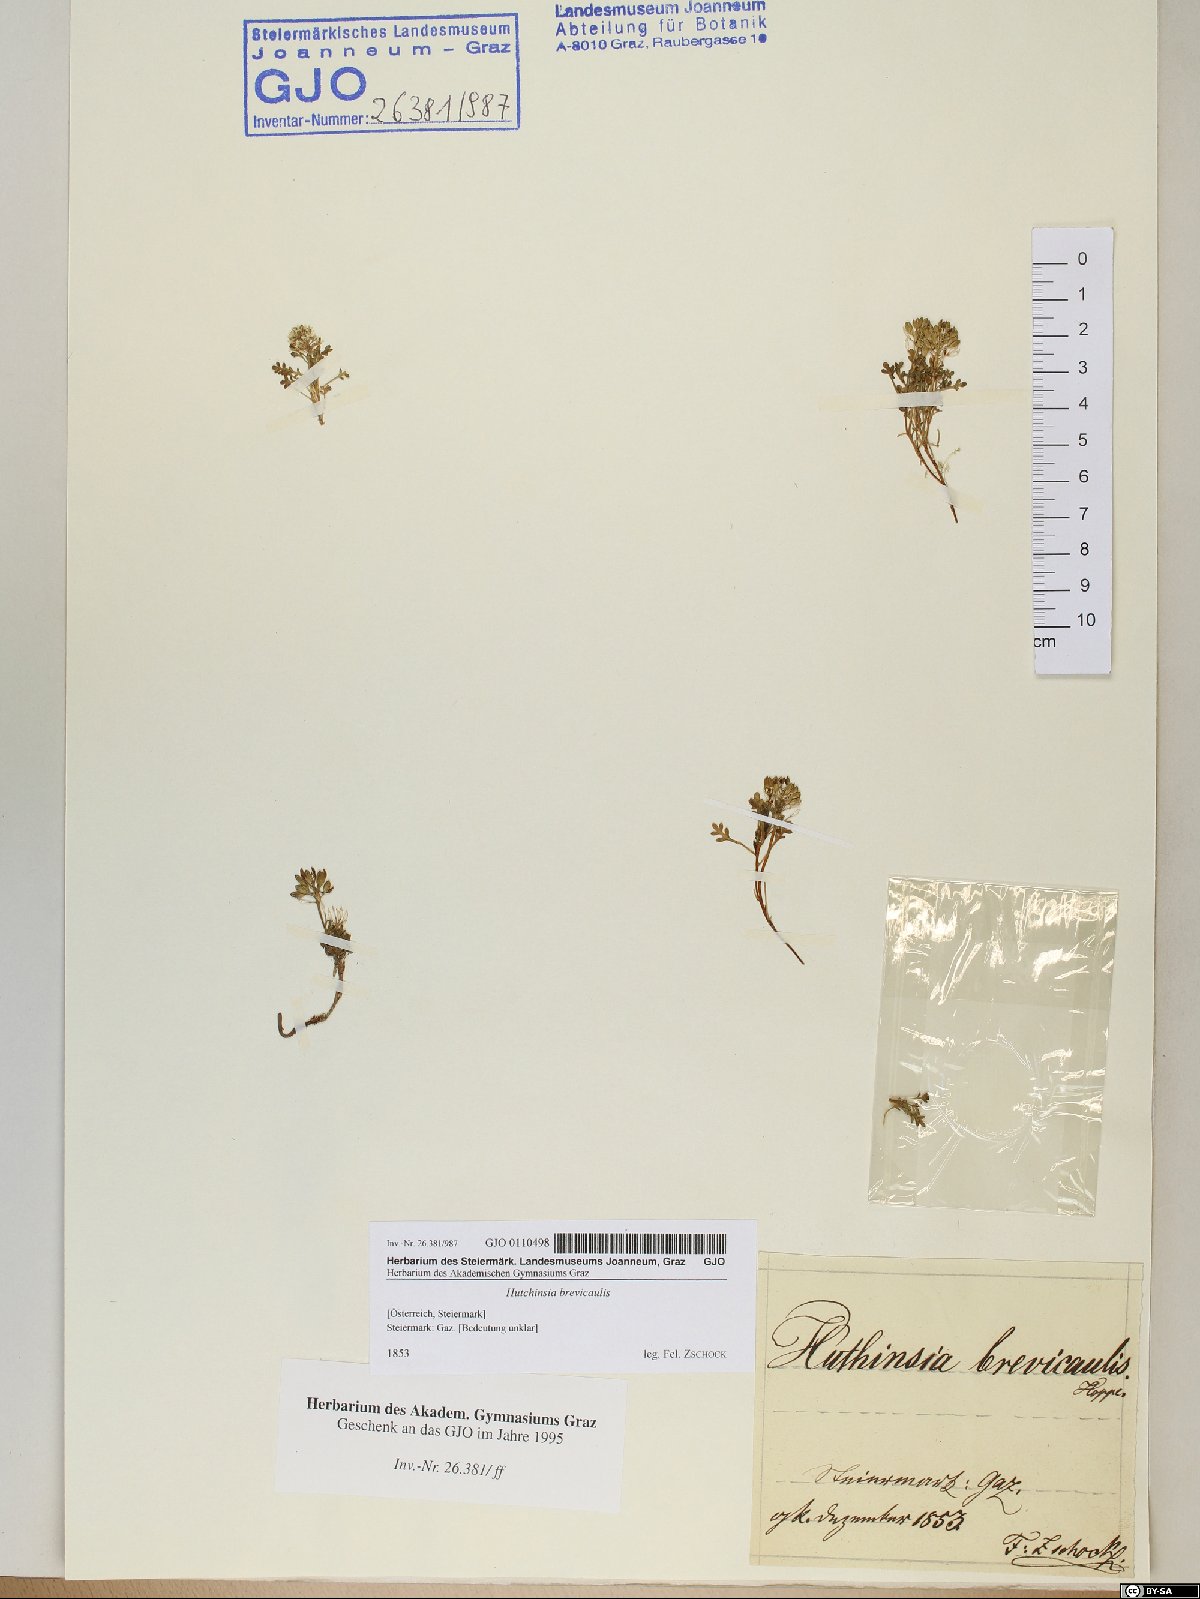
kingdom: Plantae
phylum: Tracheophyta
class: Magnoliopsida
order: Brassicales
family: Brassicaceae
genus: Hornungia
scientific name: Hornungia alpina
